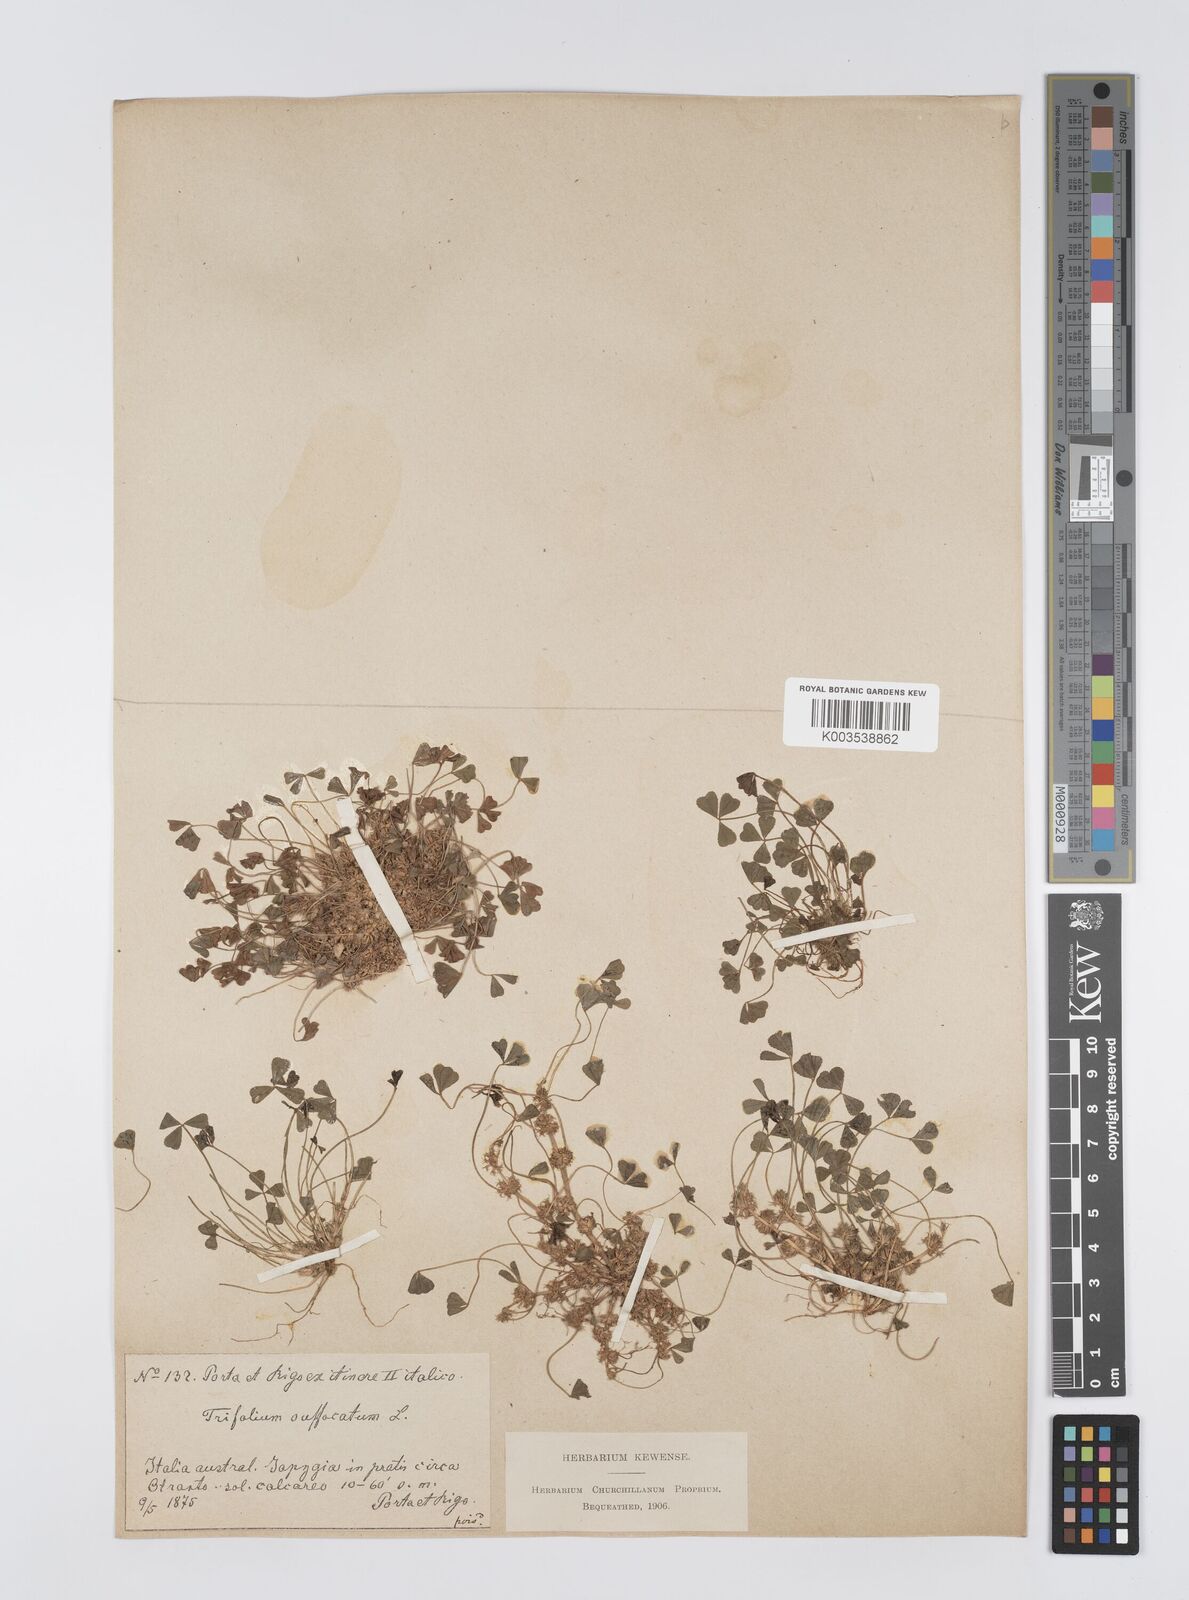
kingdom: Plantae
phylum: Tracheophyta
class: Magnoliopsida
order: Fabales
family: Fabaceae
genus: Trifolium
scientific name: Trifolium suffocatum
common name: Suffocated clover
